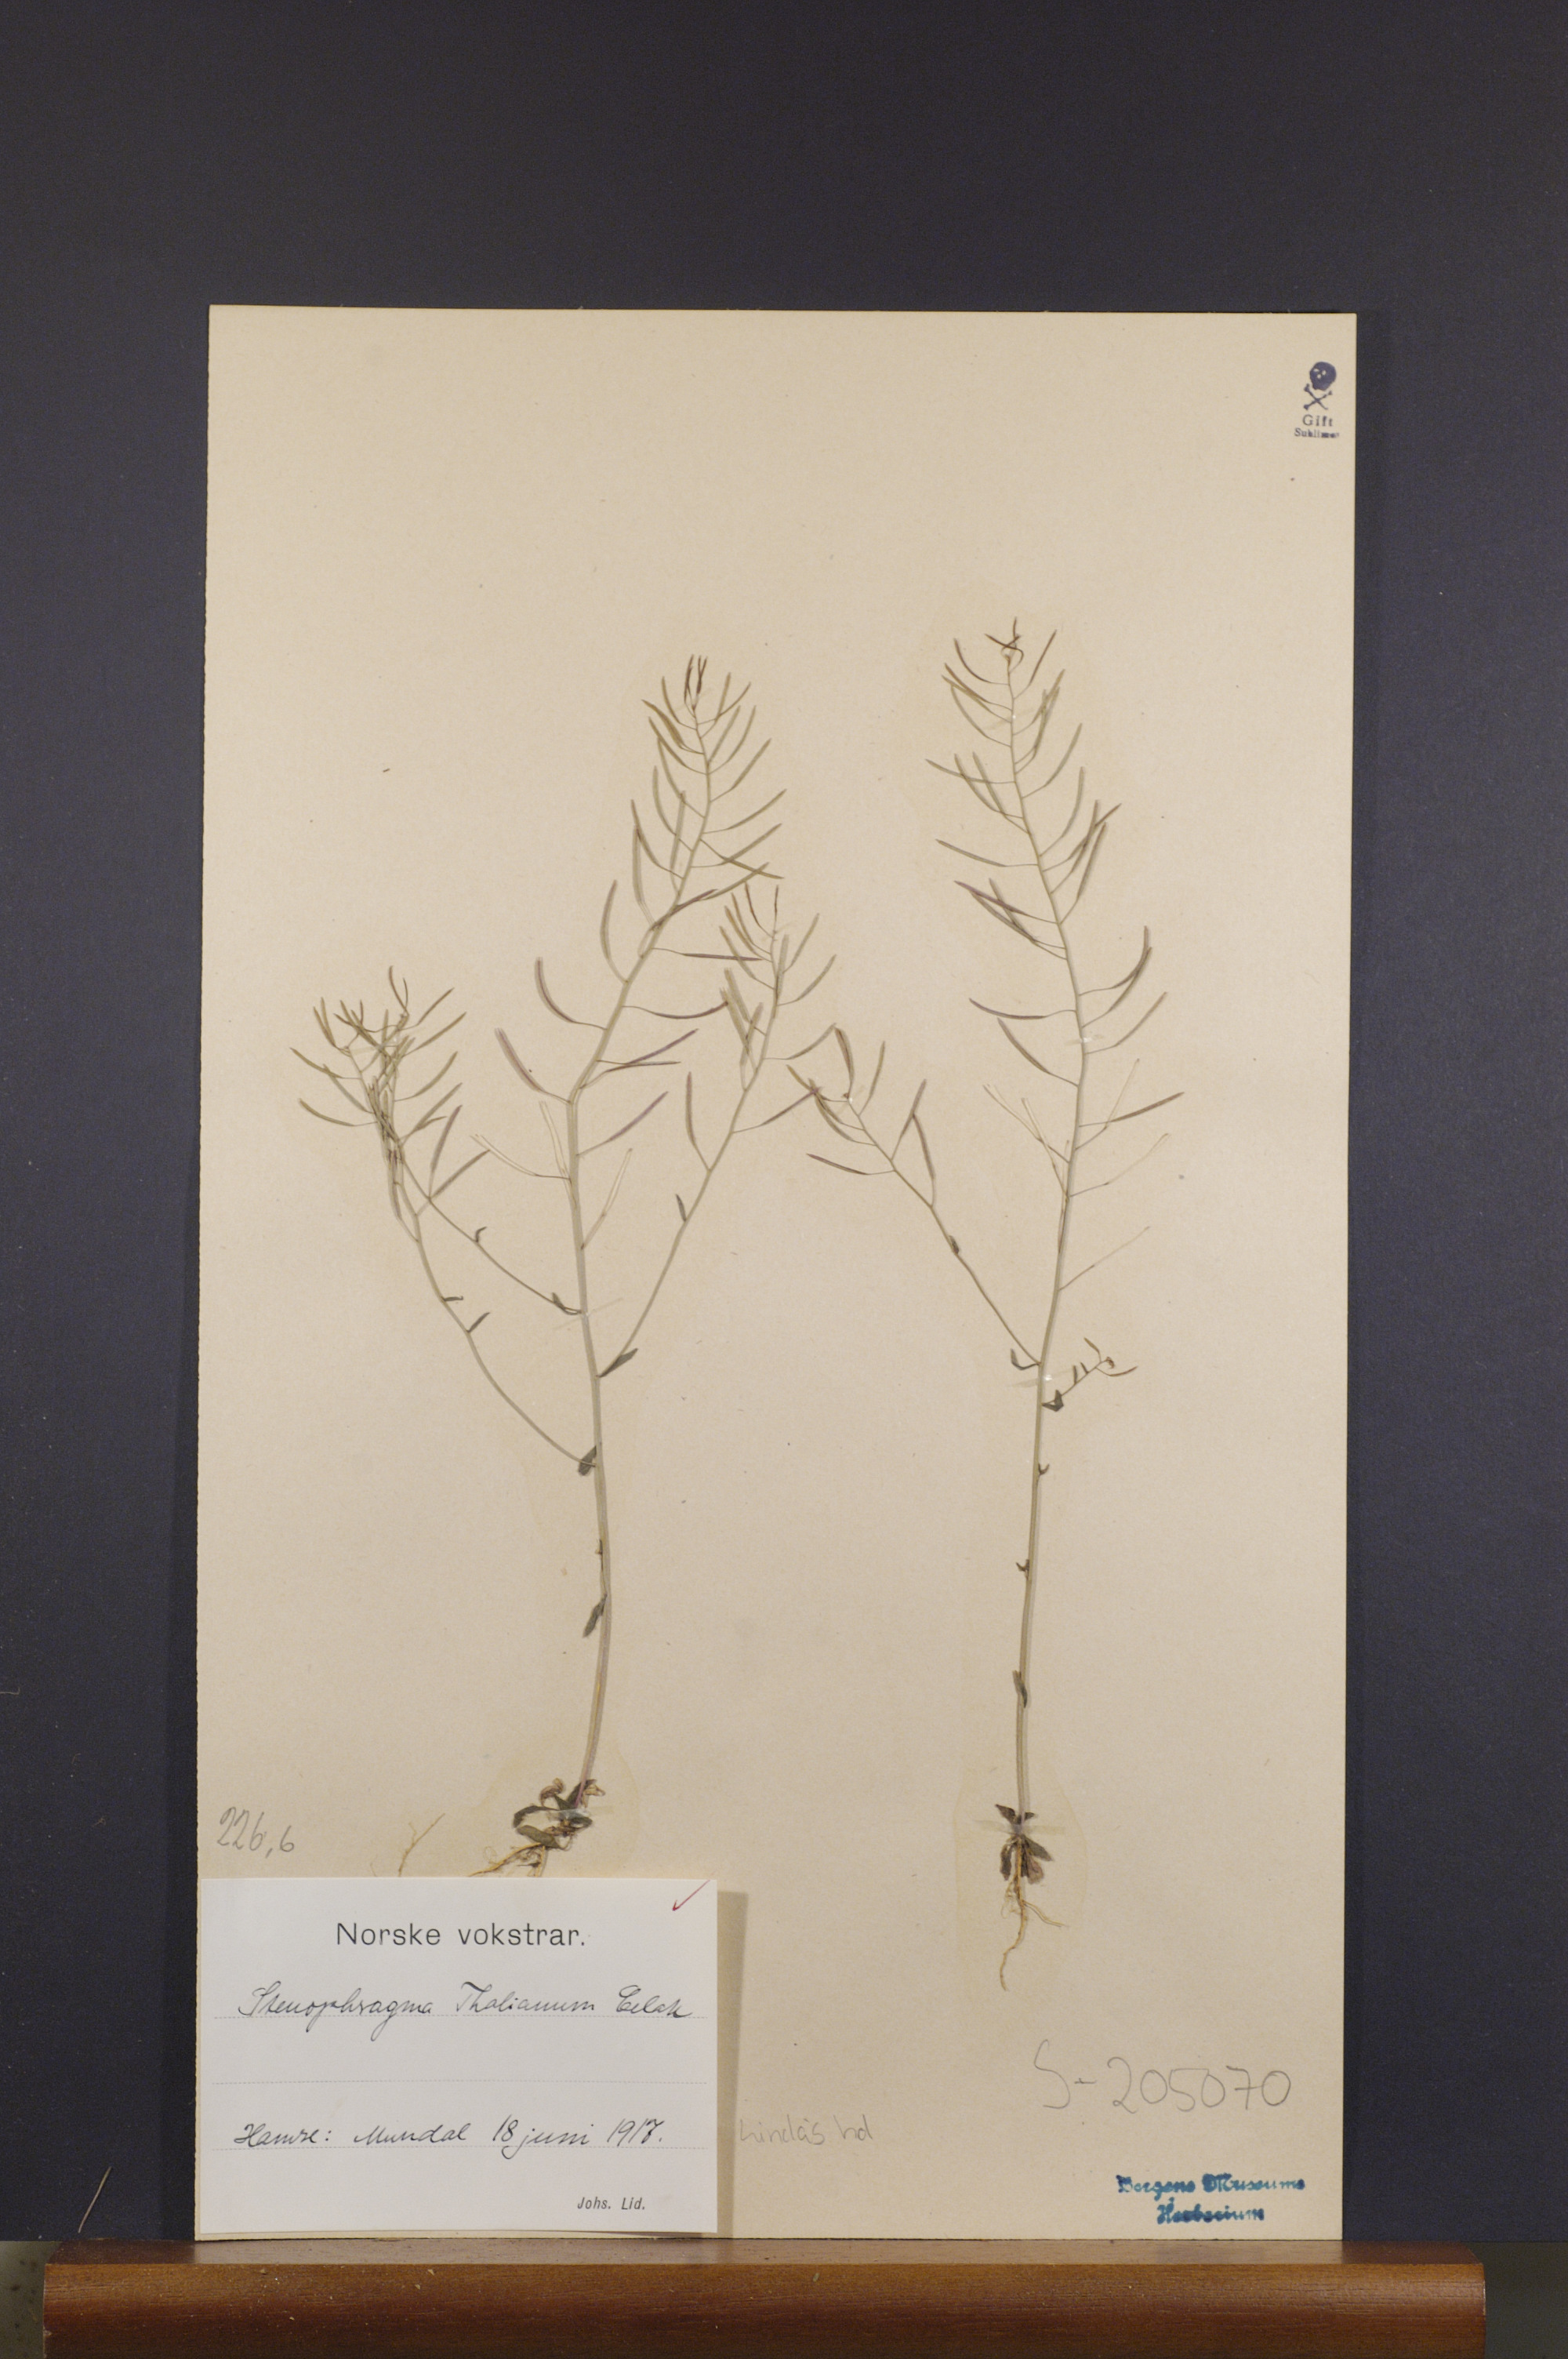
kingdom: Plantae
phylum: Tracheophyta
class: Magnoliopsida
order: Brassicales
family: Brassicaceae
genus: Arabidopsis
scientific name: Arabidopsis thaliana
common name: Thale cress
